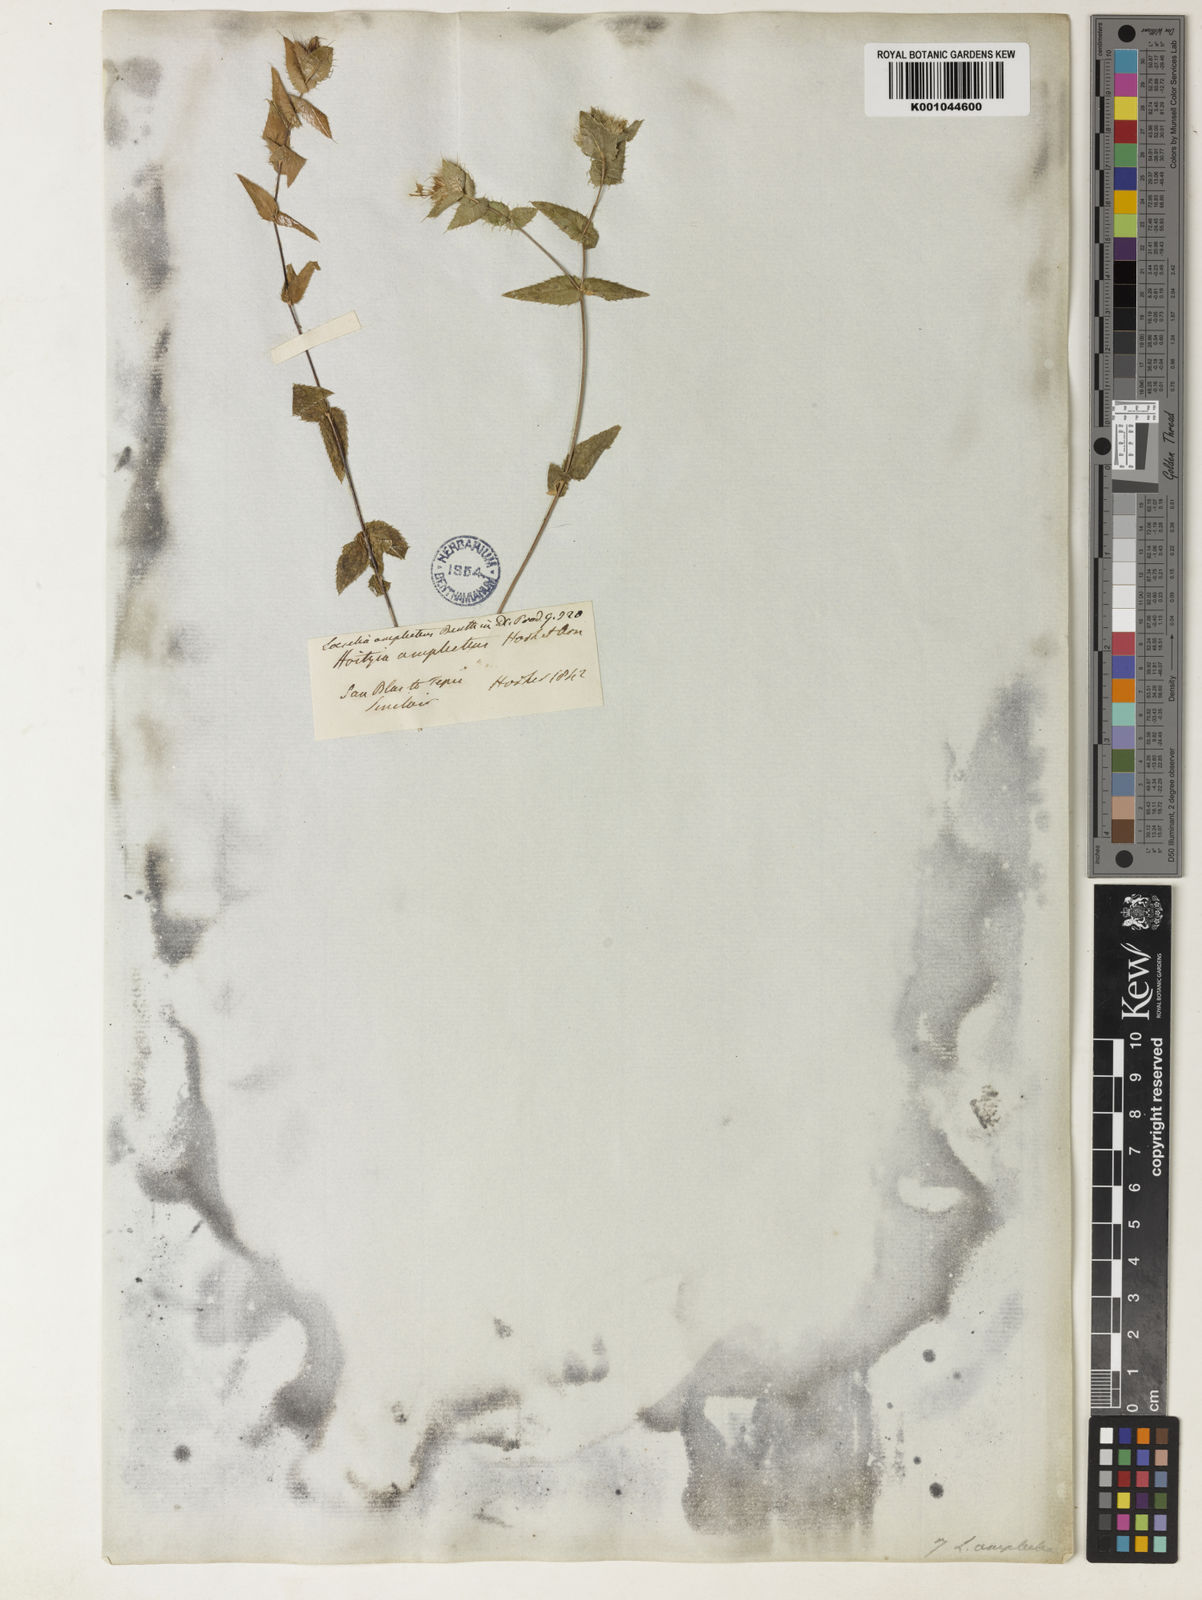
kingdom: Plantae
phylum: Tracheophyta
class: Magnoliopsida
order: Ericales
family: Polemoniaceae
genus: Loeselia
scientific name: Loeselia amplectens
